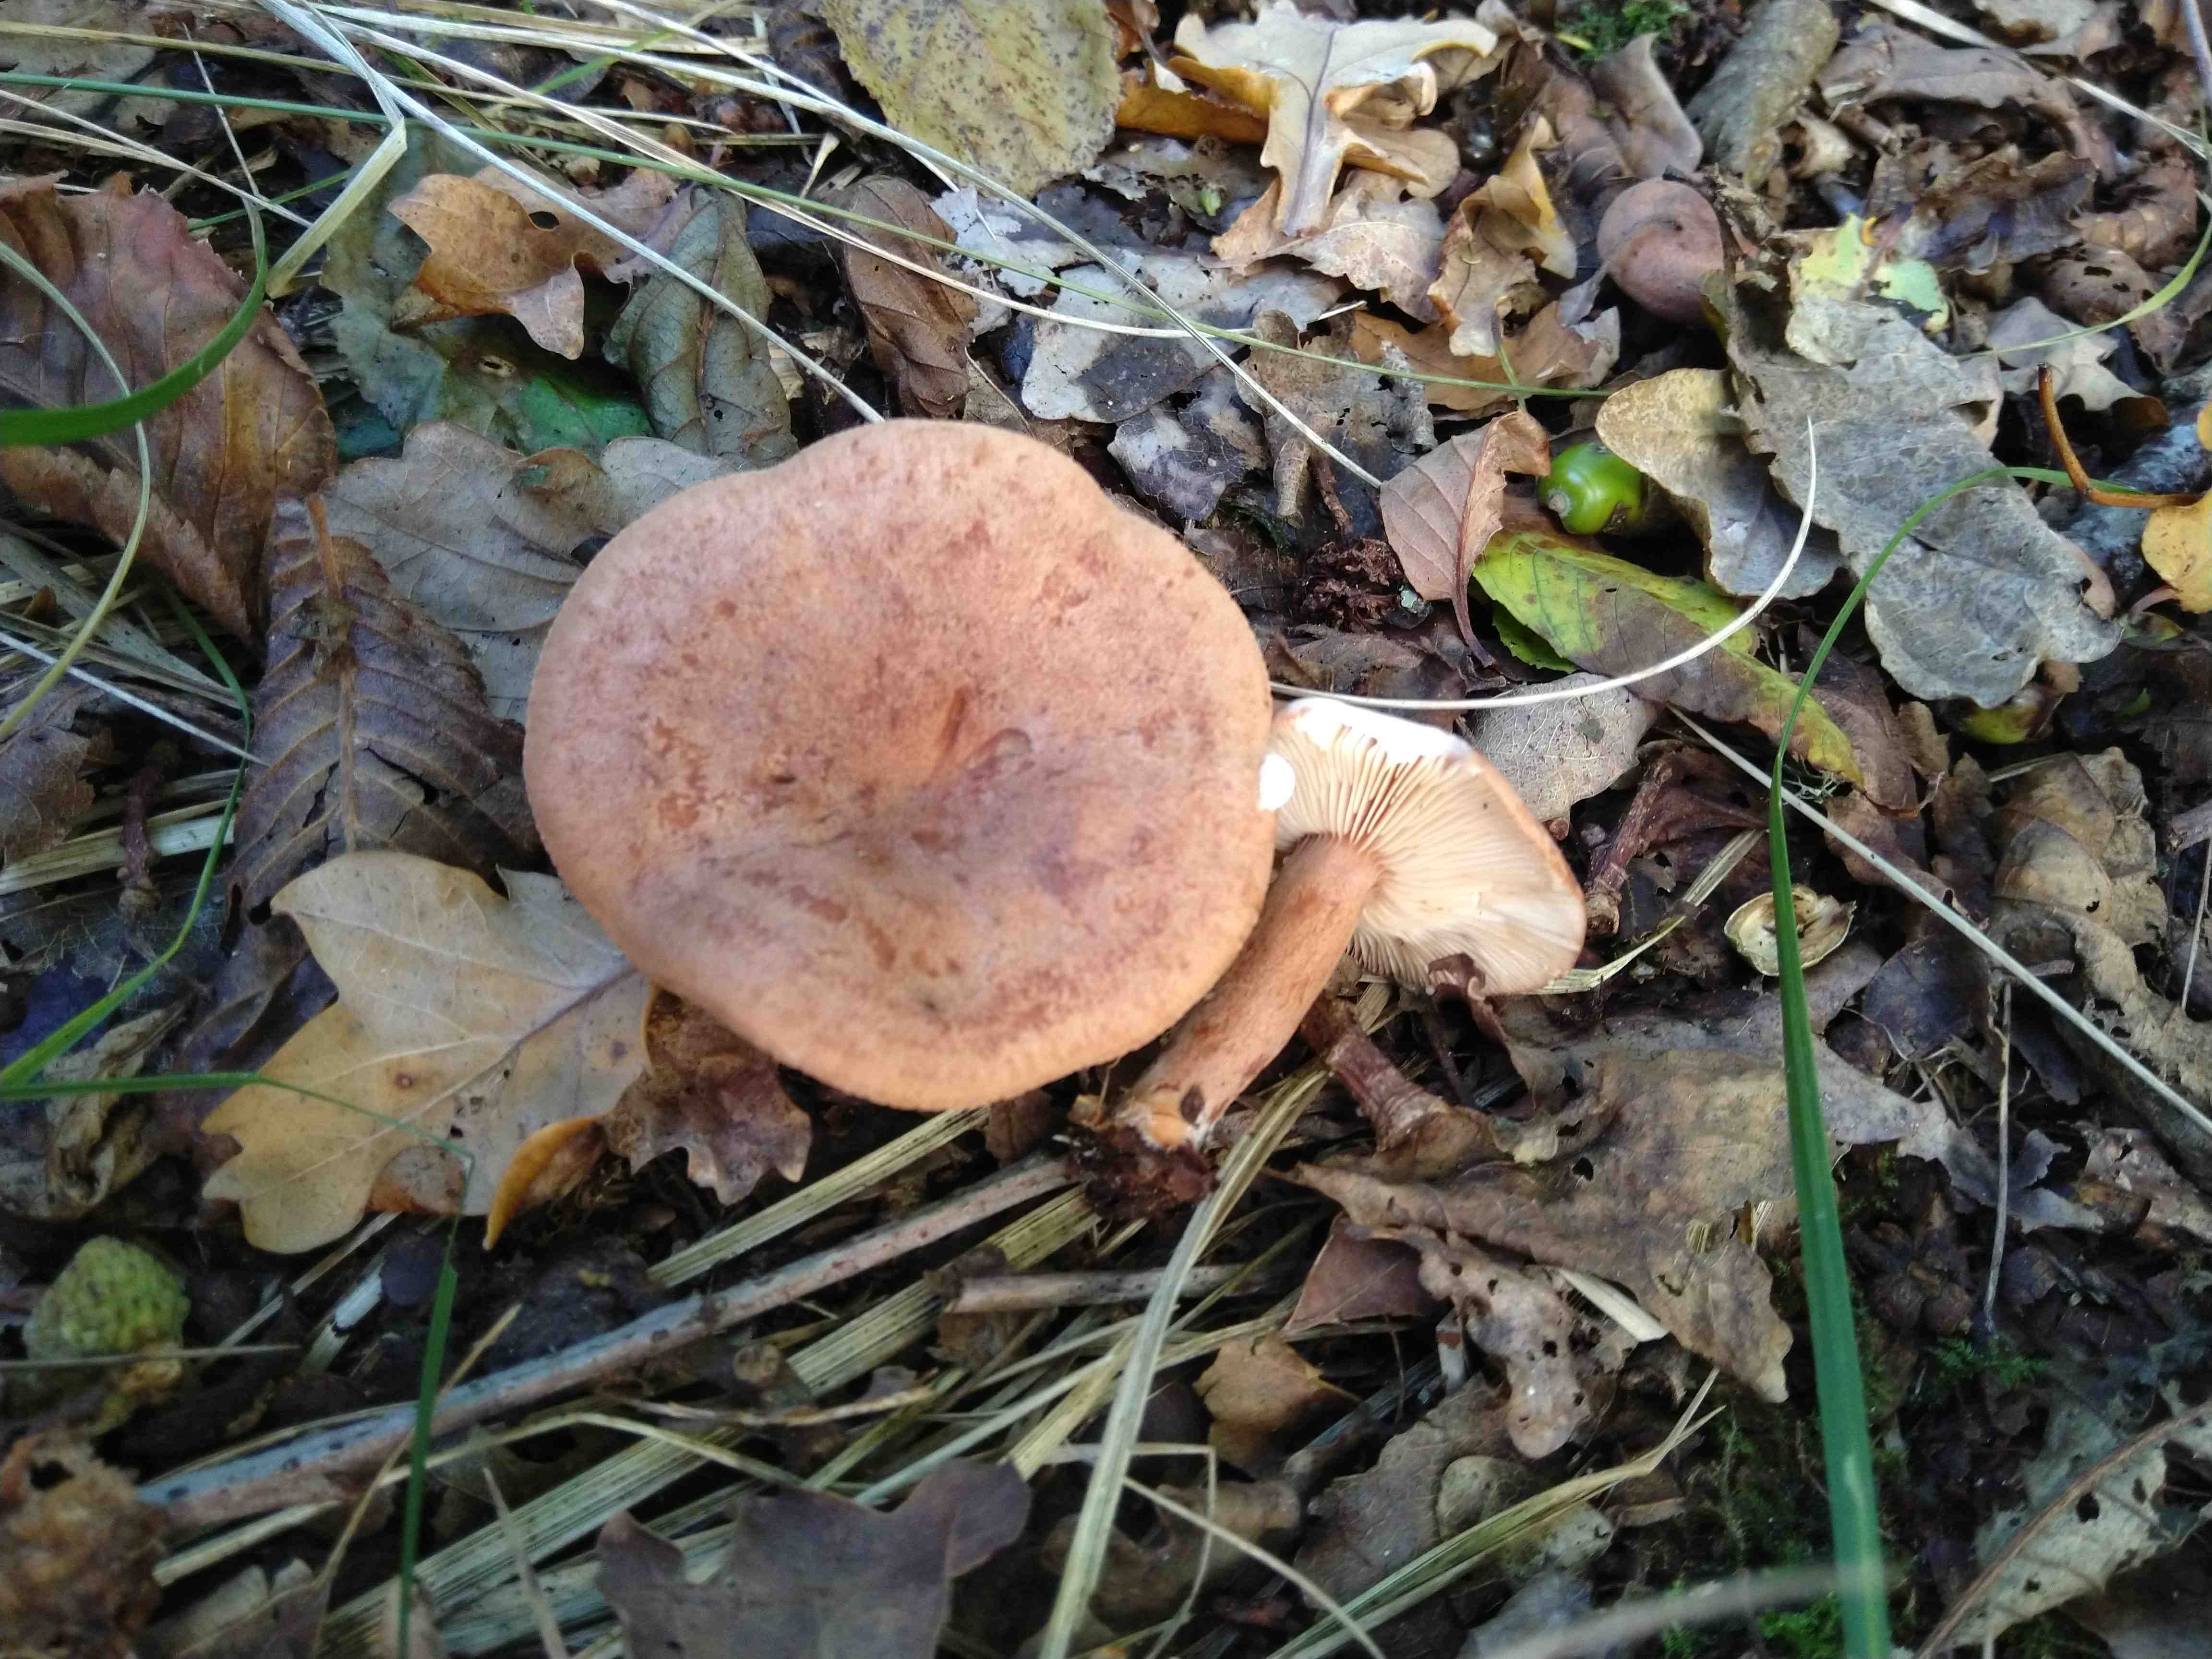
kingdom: Fungi
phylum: Basidiomycota
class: Agaricomycetes
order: Russulales
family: Russulaceae
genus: Lactarius
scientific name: Lactarius quietus
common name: ege-mælkehat
